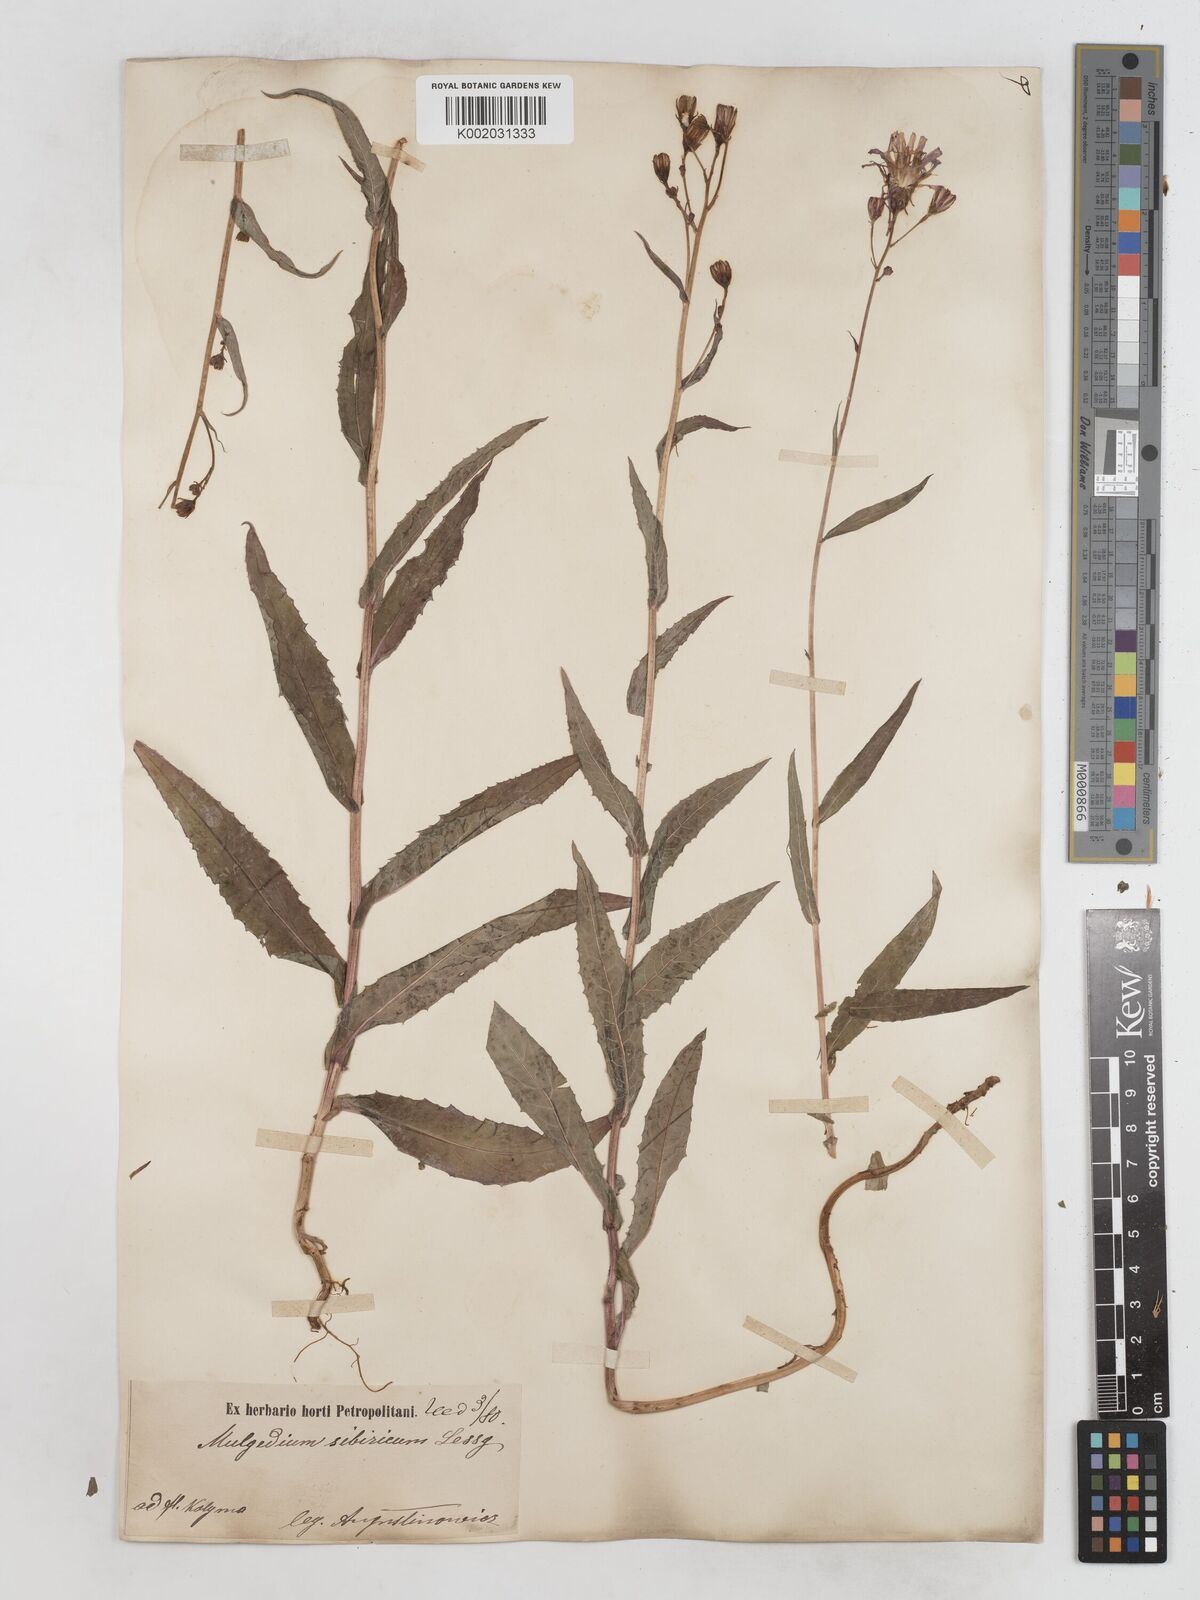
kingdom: Plantae
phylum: Tracheophyta
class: Magnoliopsida
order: Asterales
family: Asteraceae
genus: Lactuca
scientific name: Lactuca sibirica
